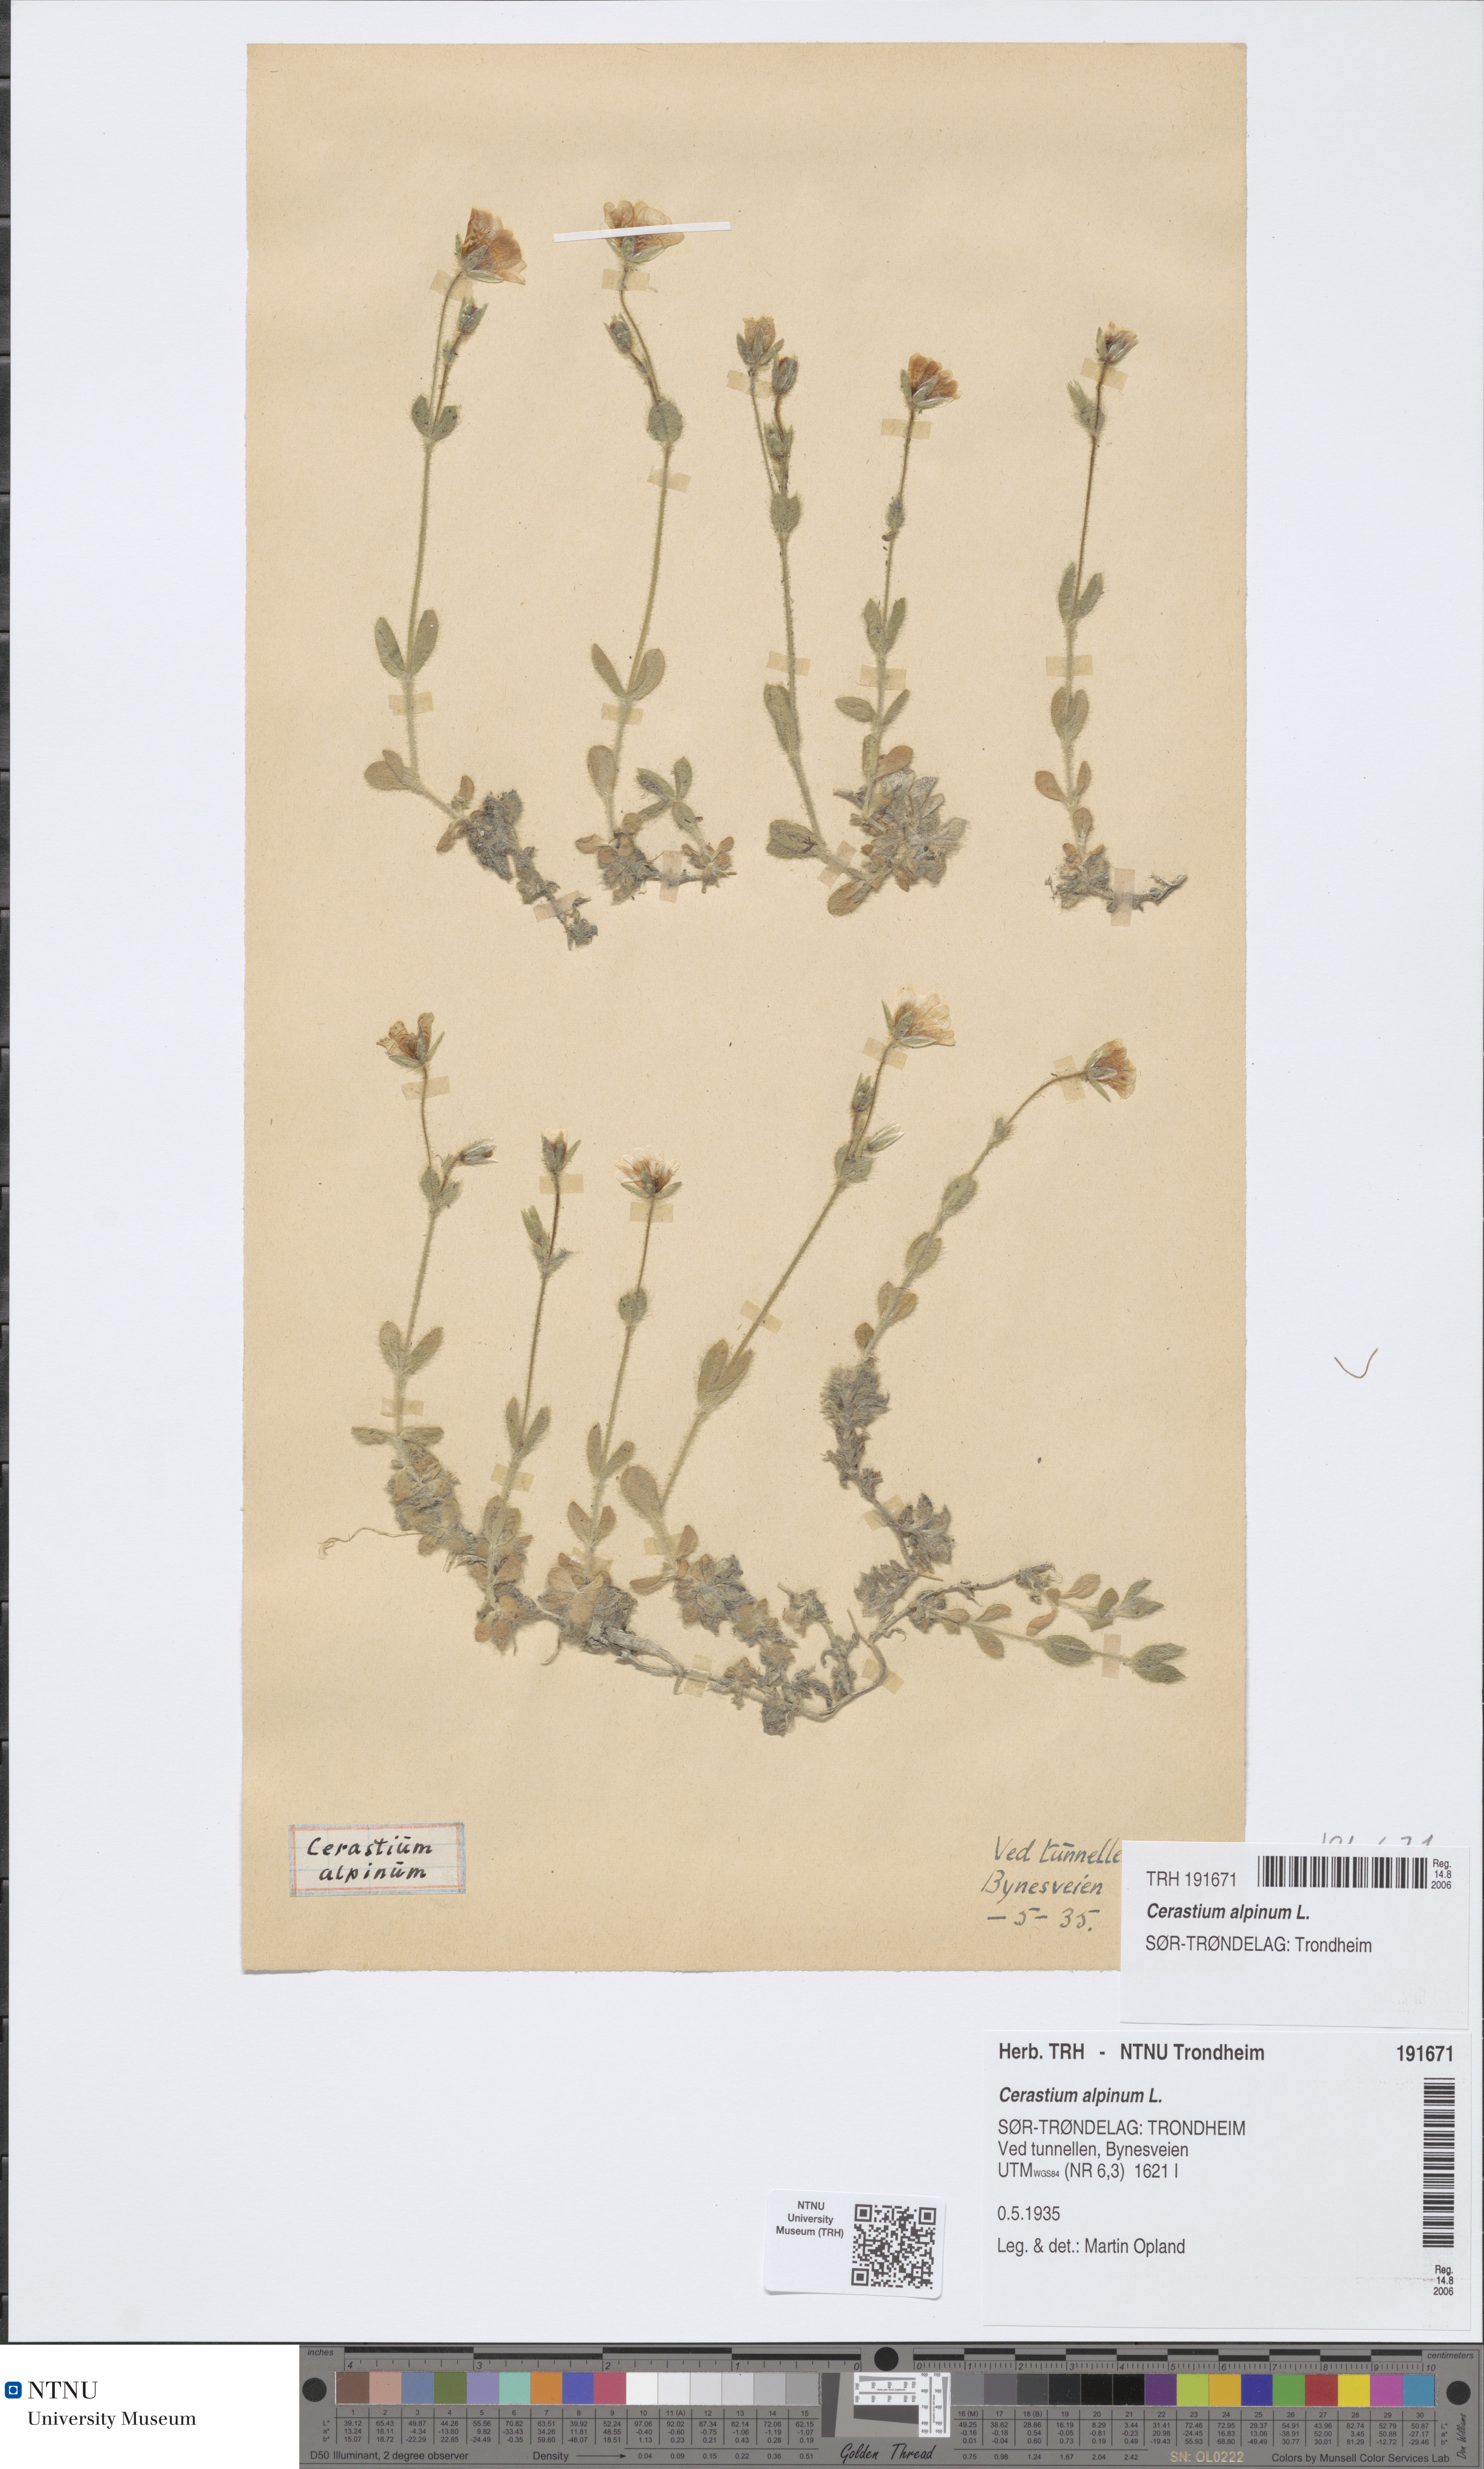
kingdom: Plantae
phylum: Tracheophyta
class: Magnoliopsida
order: Caryophyllales
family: Caryophyllaceae
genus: Cerastium
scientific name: Cerastium alpinum
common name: Alpine mouse-ear
